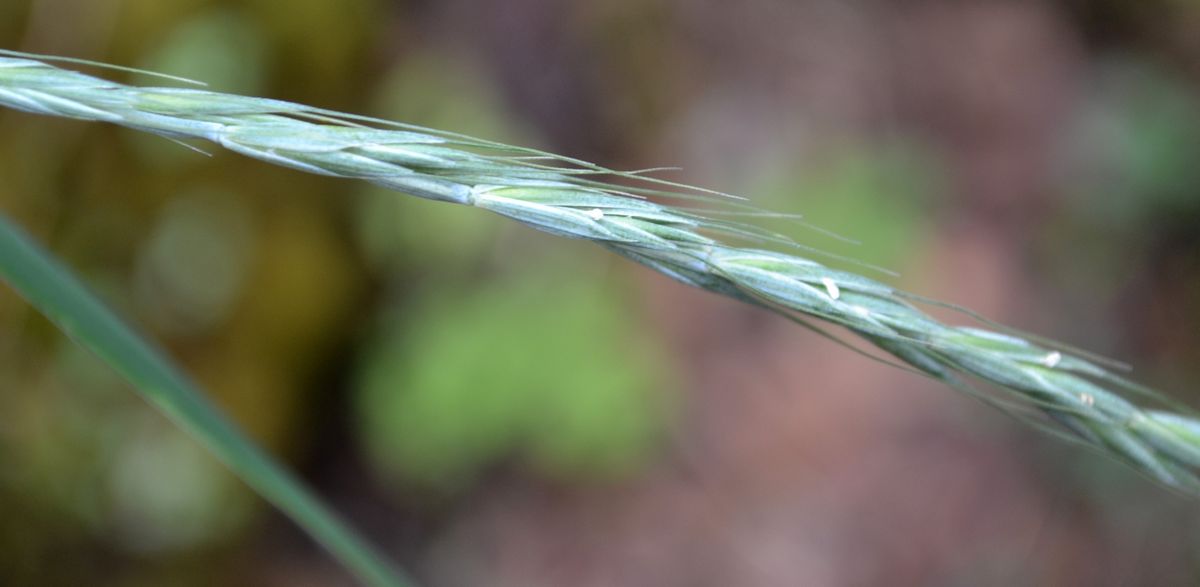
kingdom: Plantae
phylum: Tracheophyta
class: Liliopsida
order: Poales
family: Poaceae
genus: Elymus
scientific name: Elymus caninus
